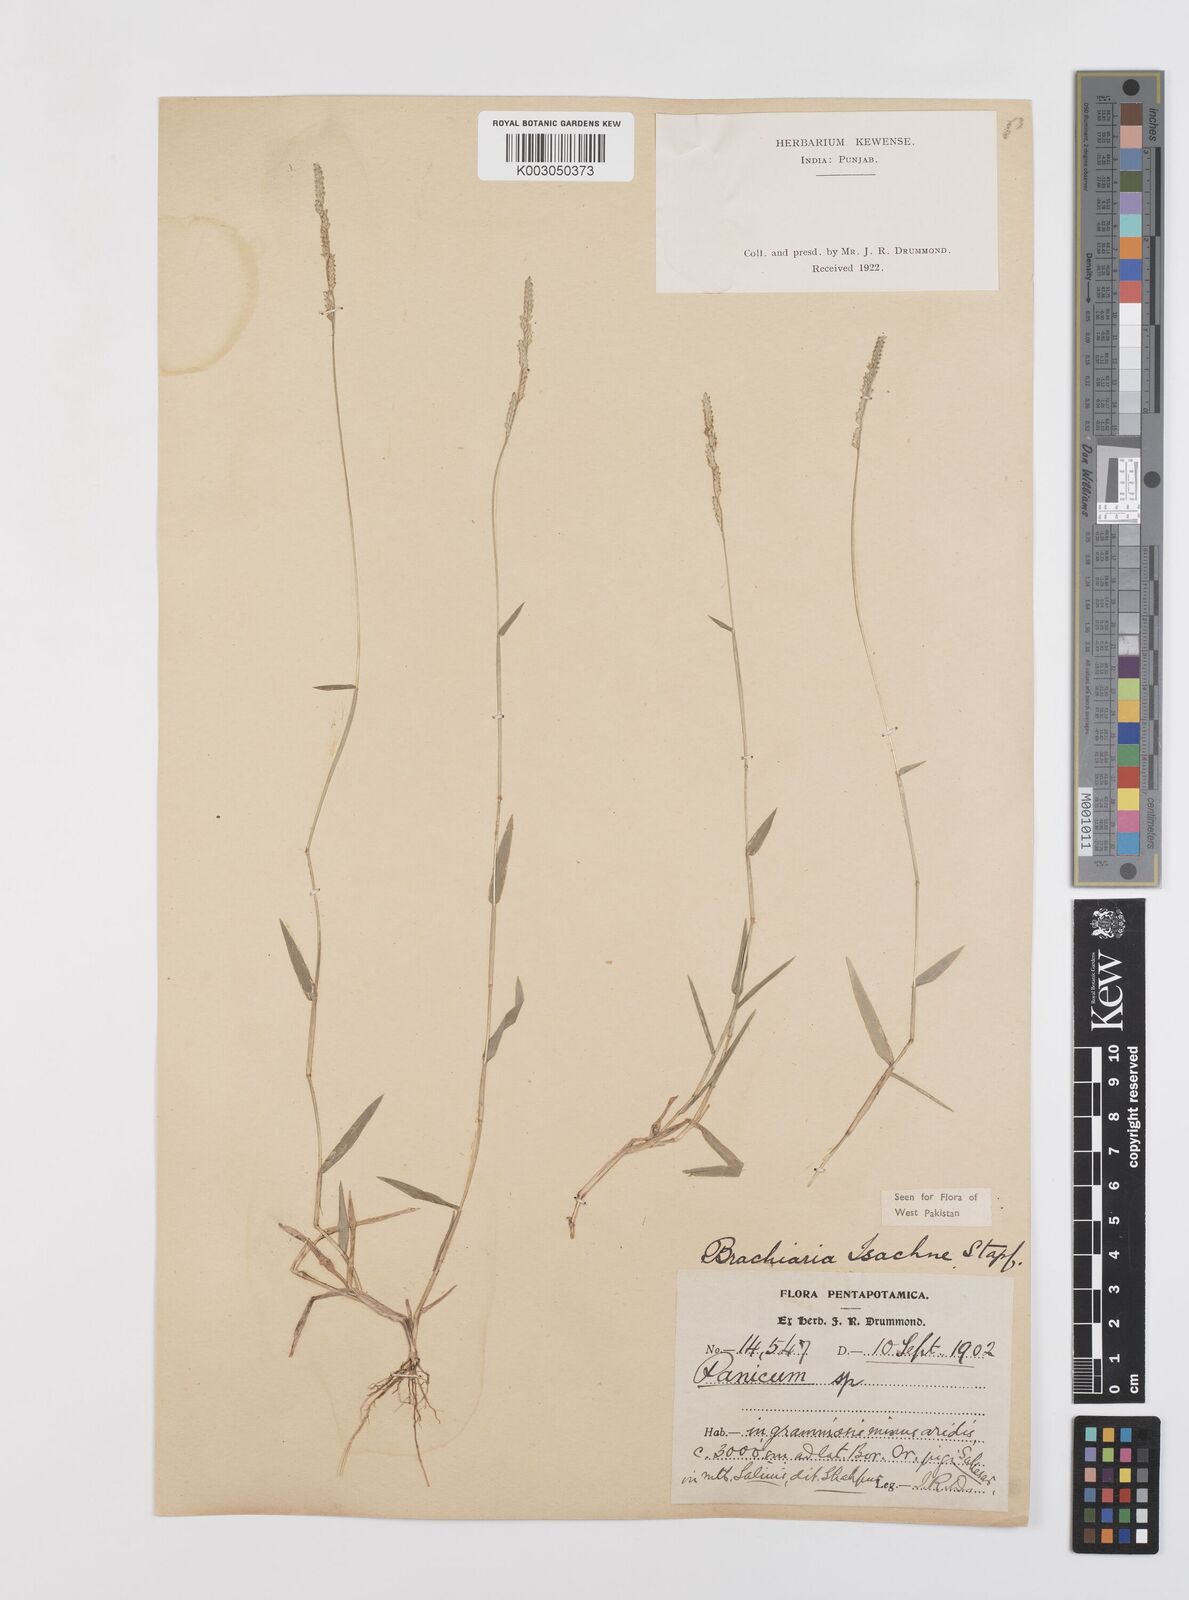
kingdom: Plantae
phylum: Tracheophyta
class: Liliopsida
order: Poales
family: Poaceae
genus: Moorochloa
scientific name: Moorochloa eruciformis
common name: Sweet signalgrass
